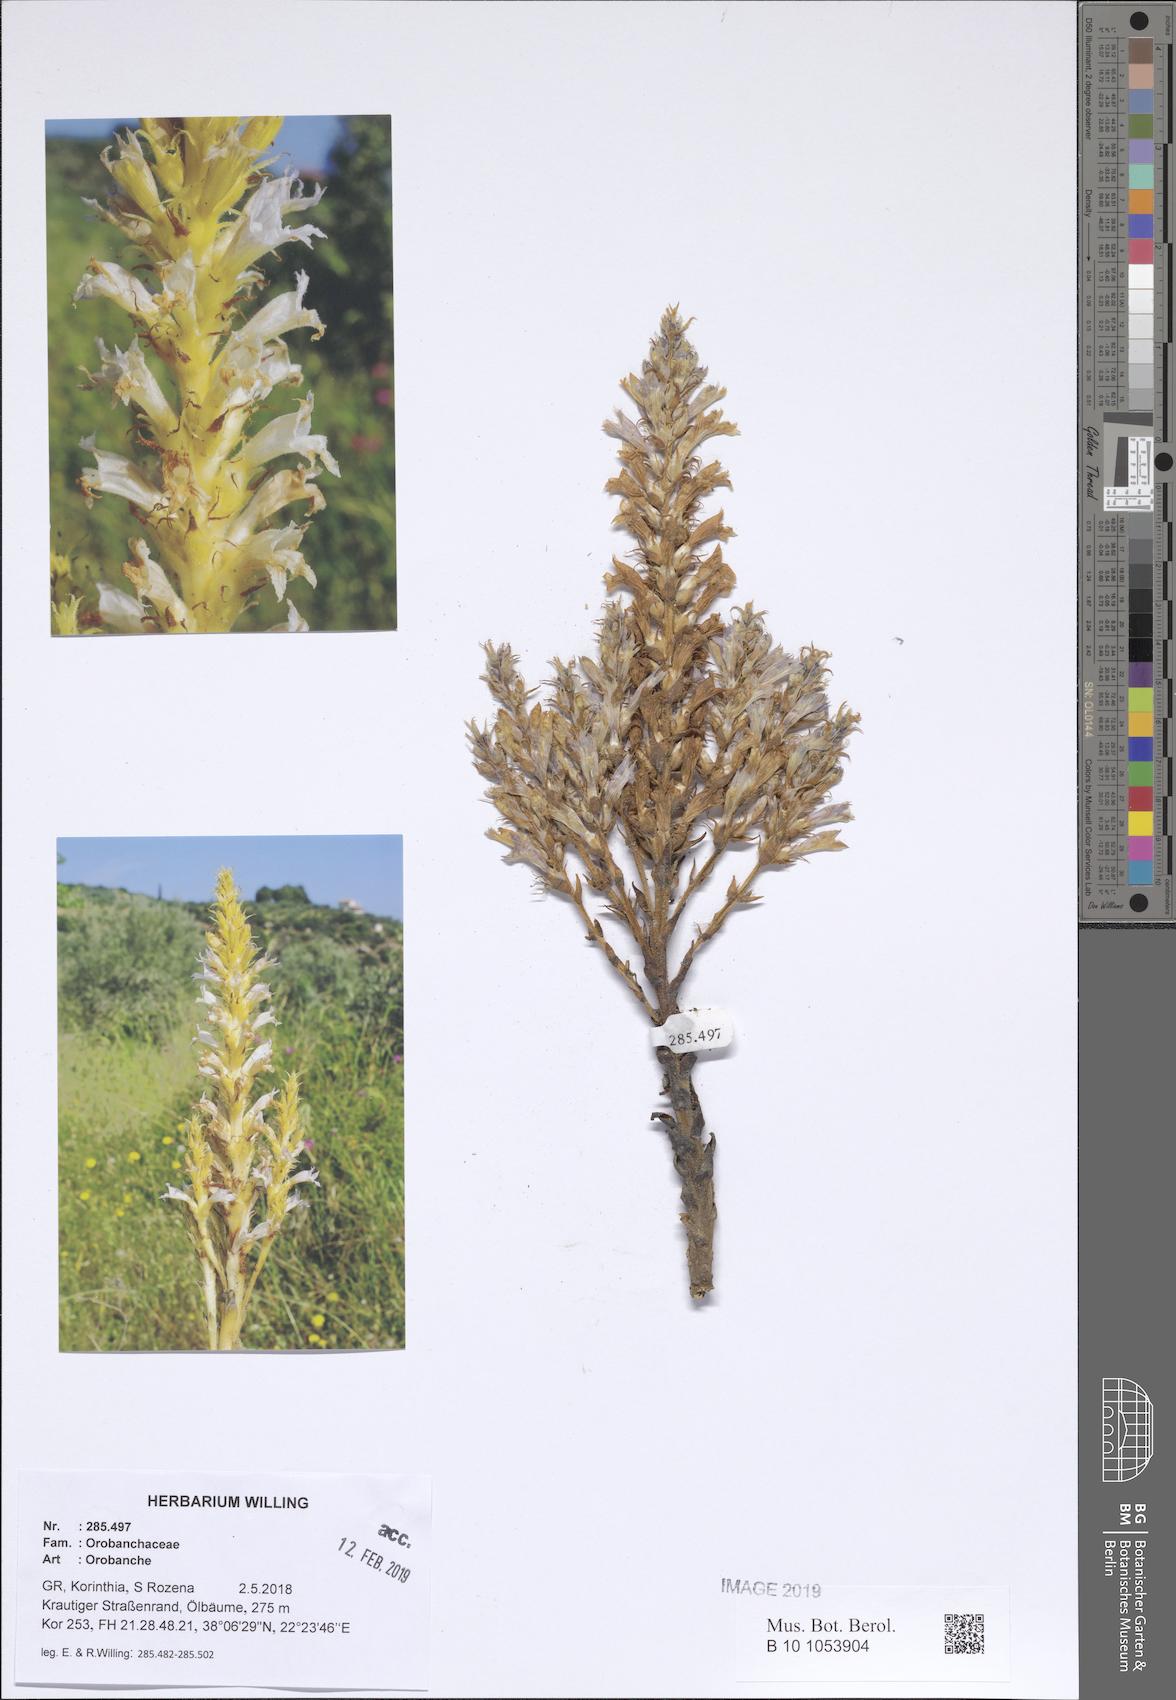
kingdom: Plantae
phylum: Tracheophyta
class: Magnoliopsida
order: Lamiales
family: Orobanchaceae
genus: Orobanche
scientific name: Orobanche
